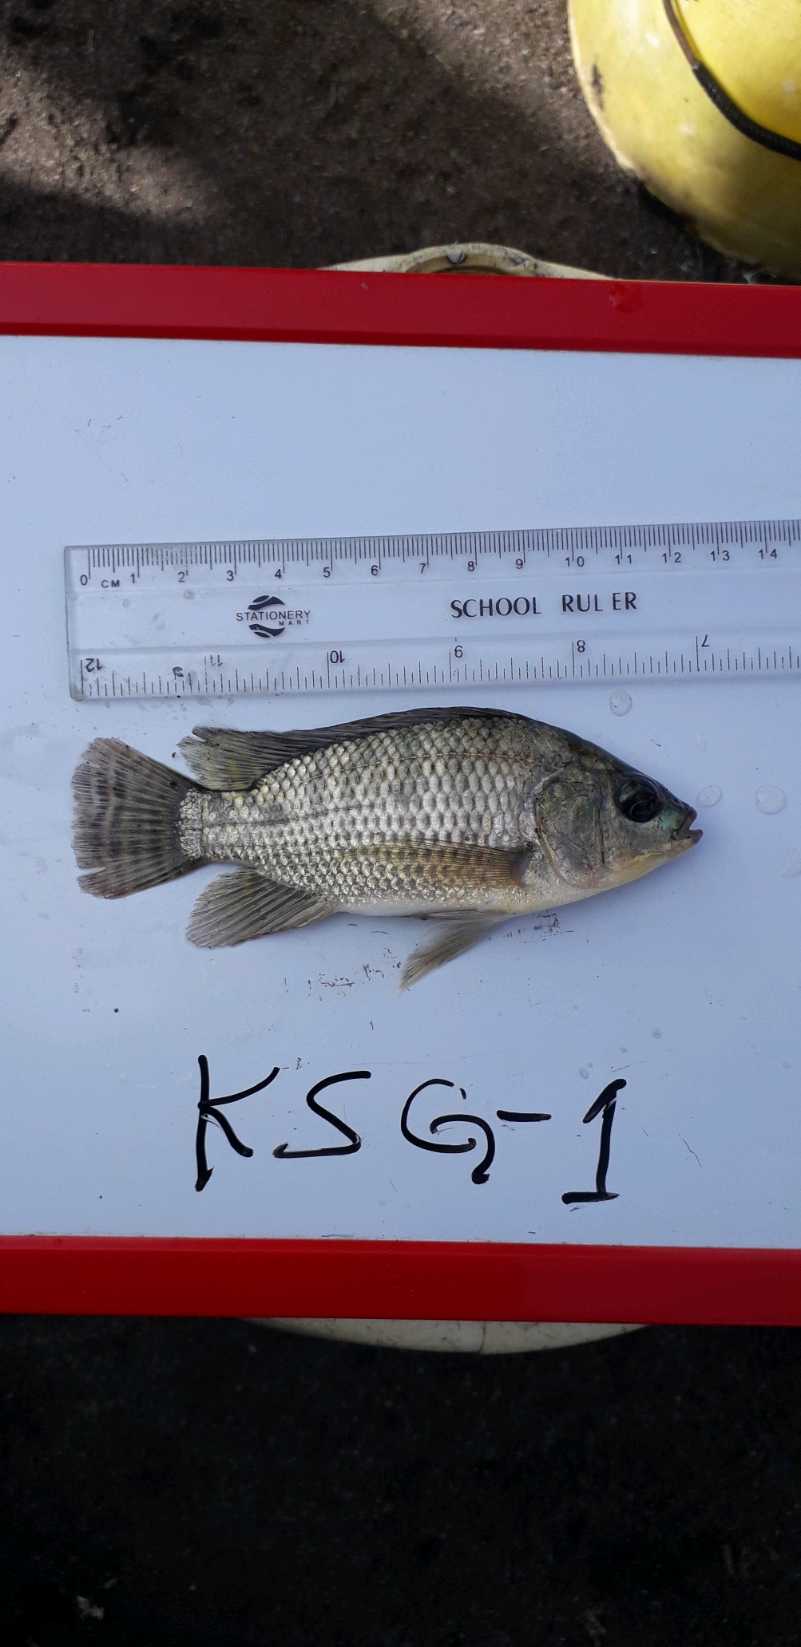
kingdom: Animalia
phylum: Chordata
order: Perciformes
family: Cichlidae
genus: Oreochromis
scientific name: Oreochromis niloticus
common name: Nile tilapia
